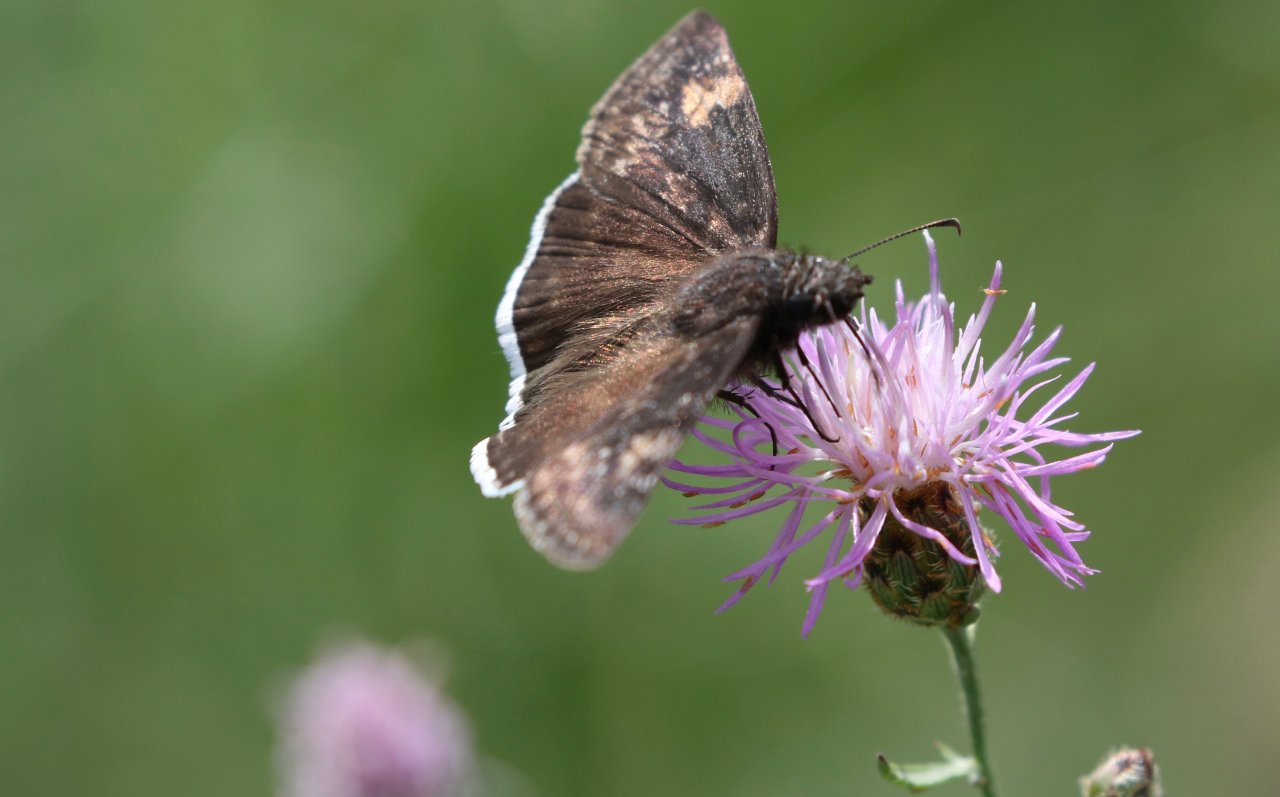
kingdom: Animalia
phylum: Arthropoda
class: Insecta
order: Lepidoptera
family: Hesperiidae
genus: Erynnis
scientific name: Erynnis funeralis
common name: Funereal Duskywing
